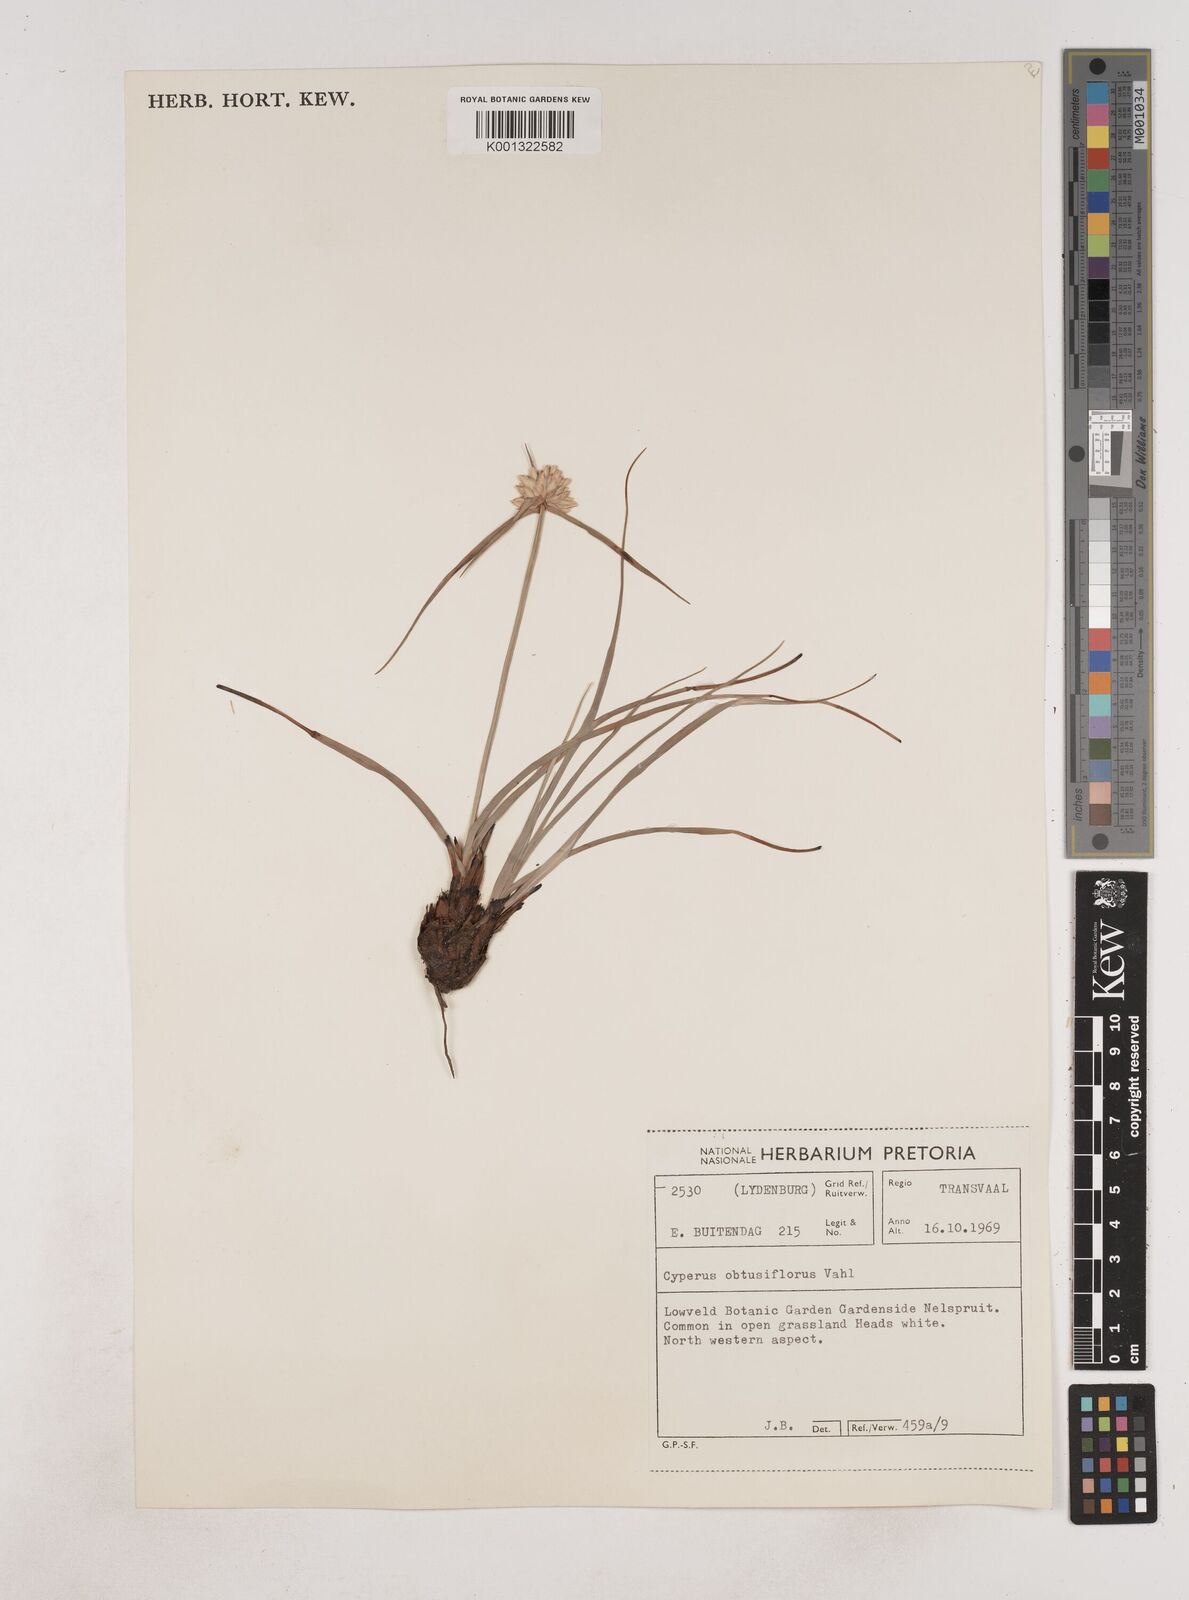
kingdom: Plantae
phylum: Tracheophyta
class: Liliopsida
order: Poales
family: Cyperaceae
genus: Cyperus
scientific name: Cyperus niveus
